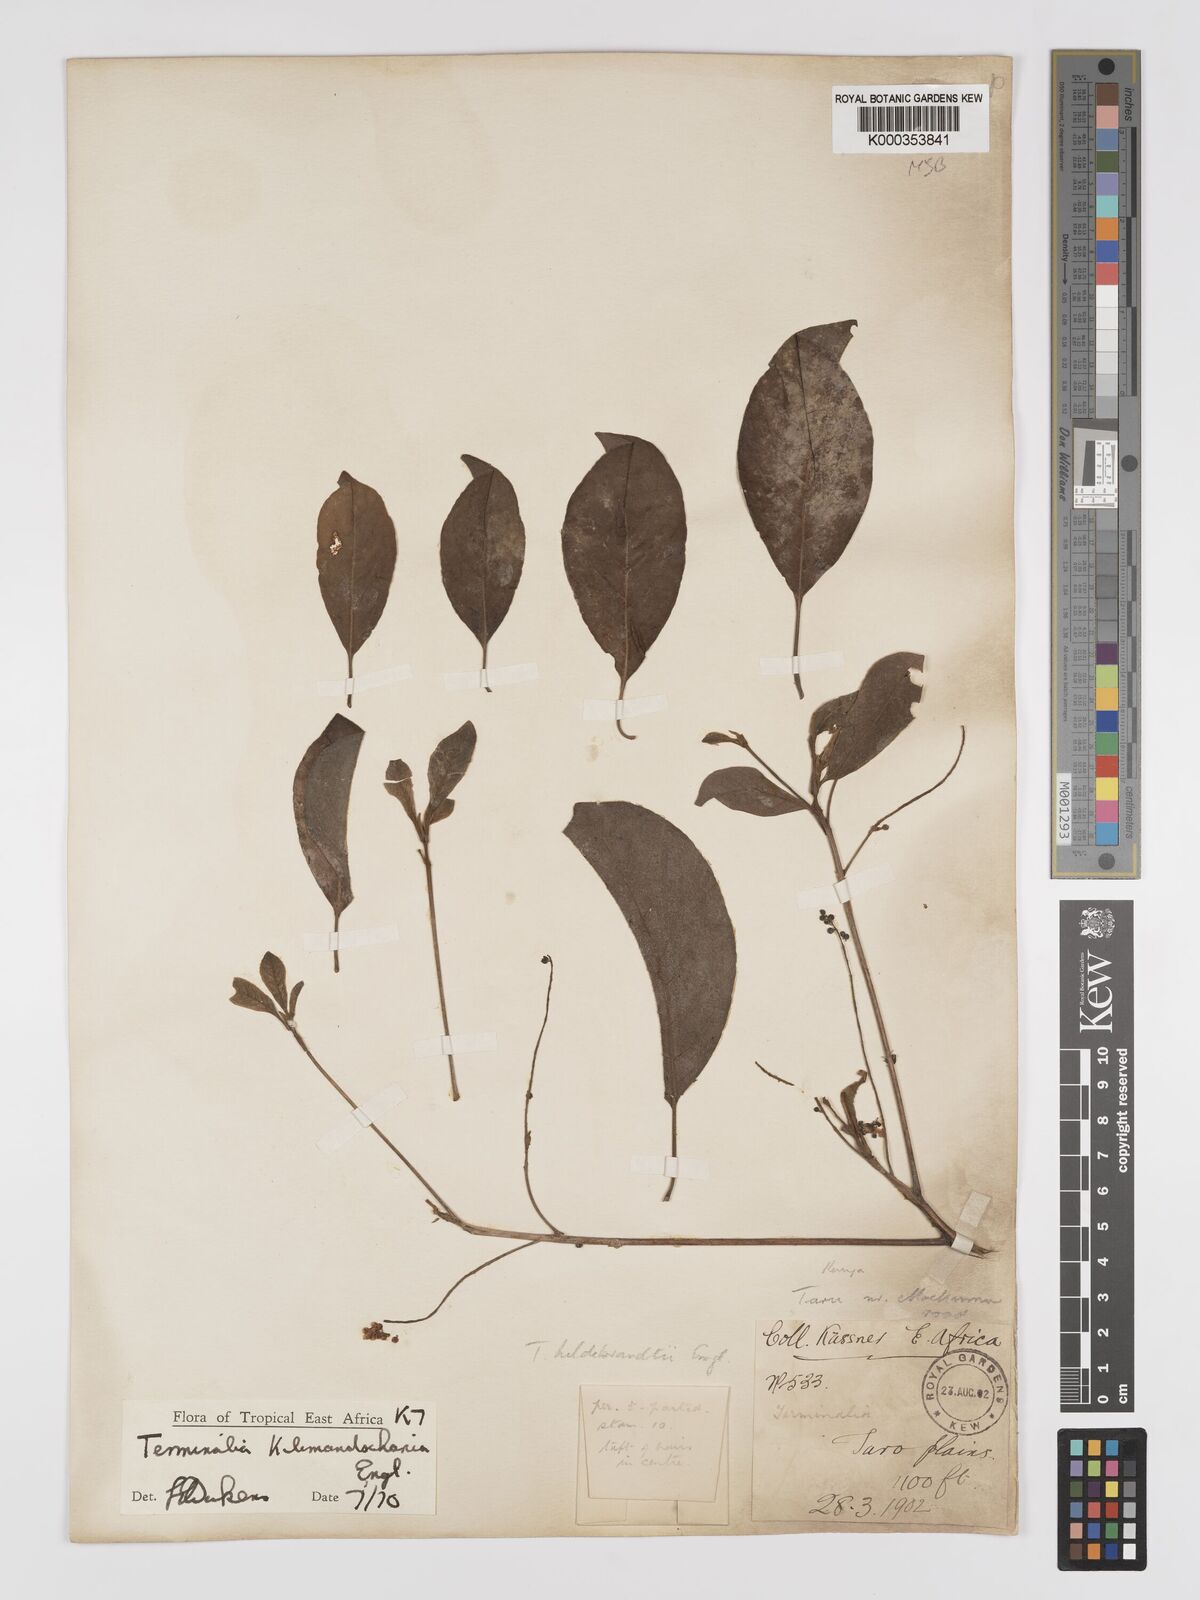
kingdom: Plantae
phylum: Tracheophyta
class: Magnoliopsida
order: Myrtales
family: Combretaceae
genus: Terminalia
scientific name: Terminalia kilimandscharica
